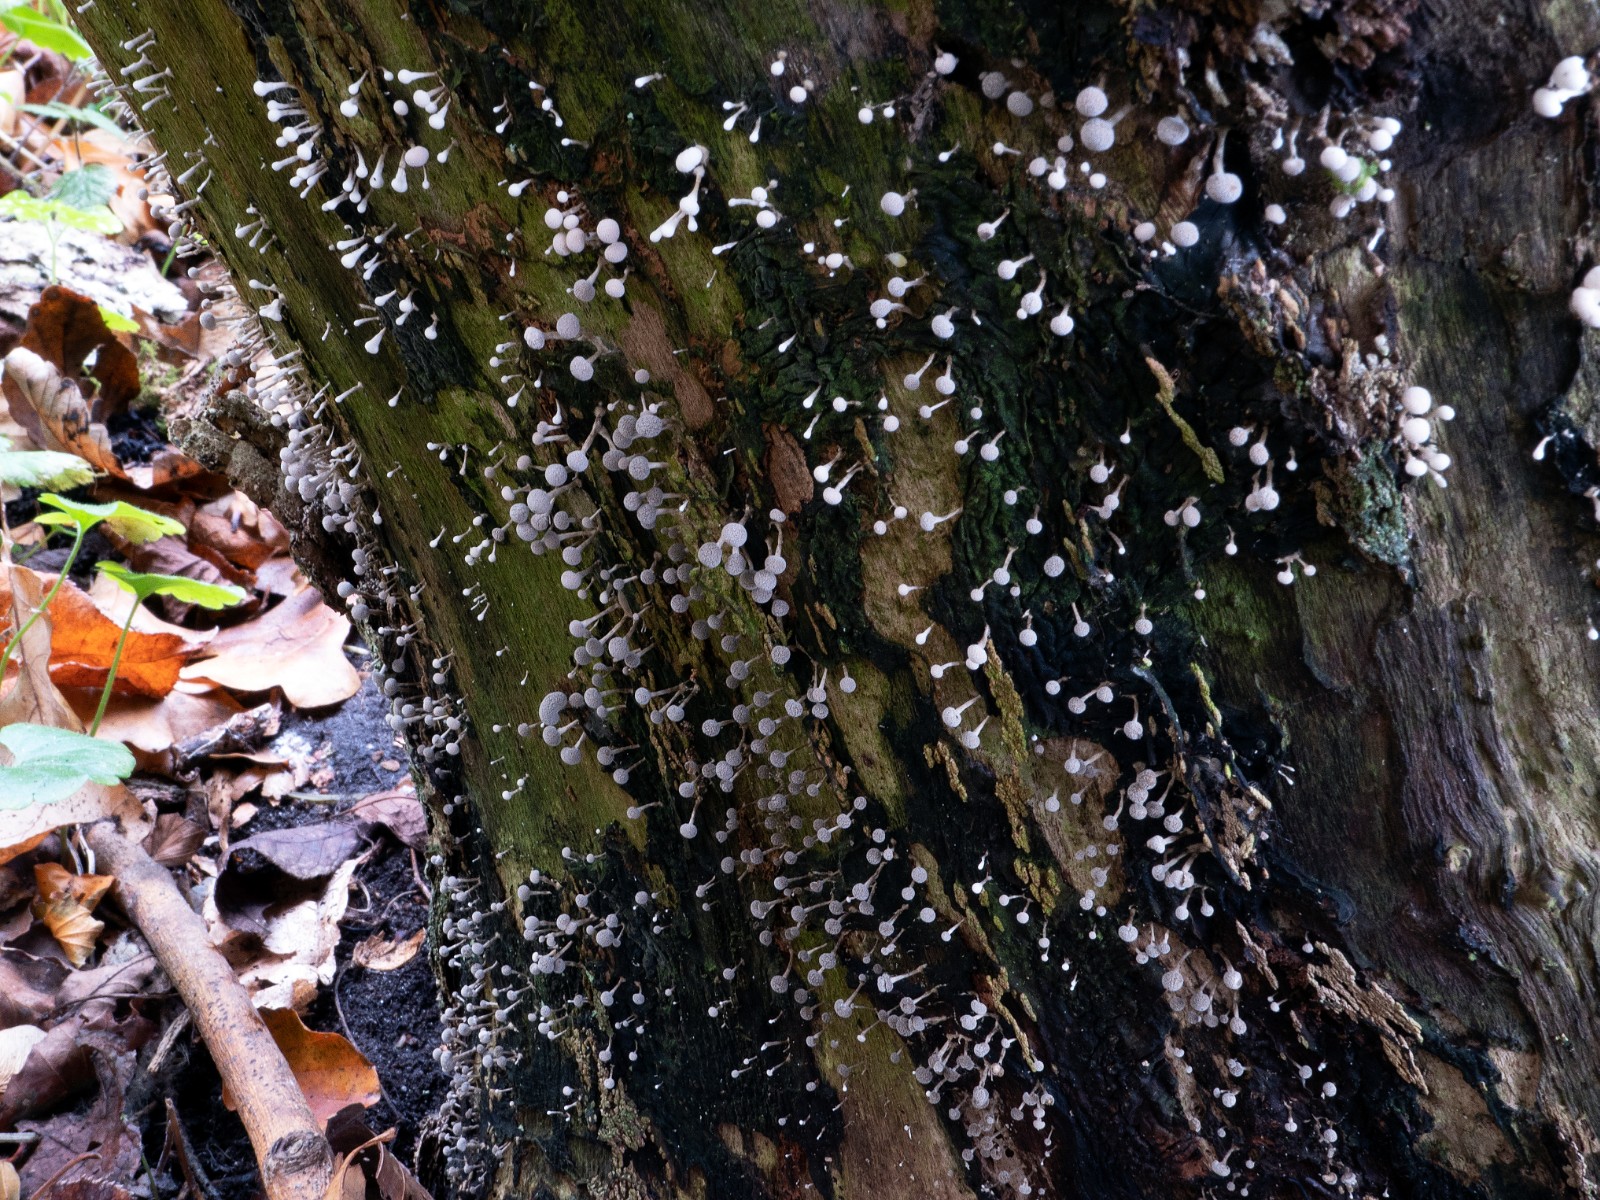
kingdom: Fungi
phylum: Basidiomycota
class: Atractiellomycetes
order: Atractiellales
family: Phleogenaceae
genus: Phleogena
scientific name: Phleogena faginea
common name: pudderkølle
